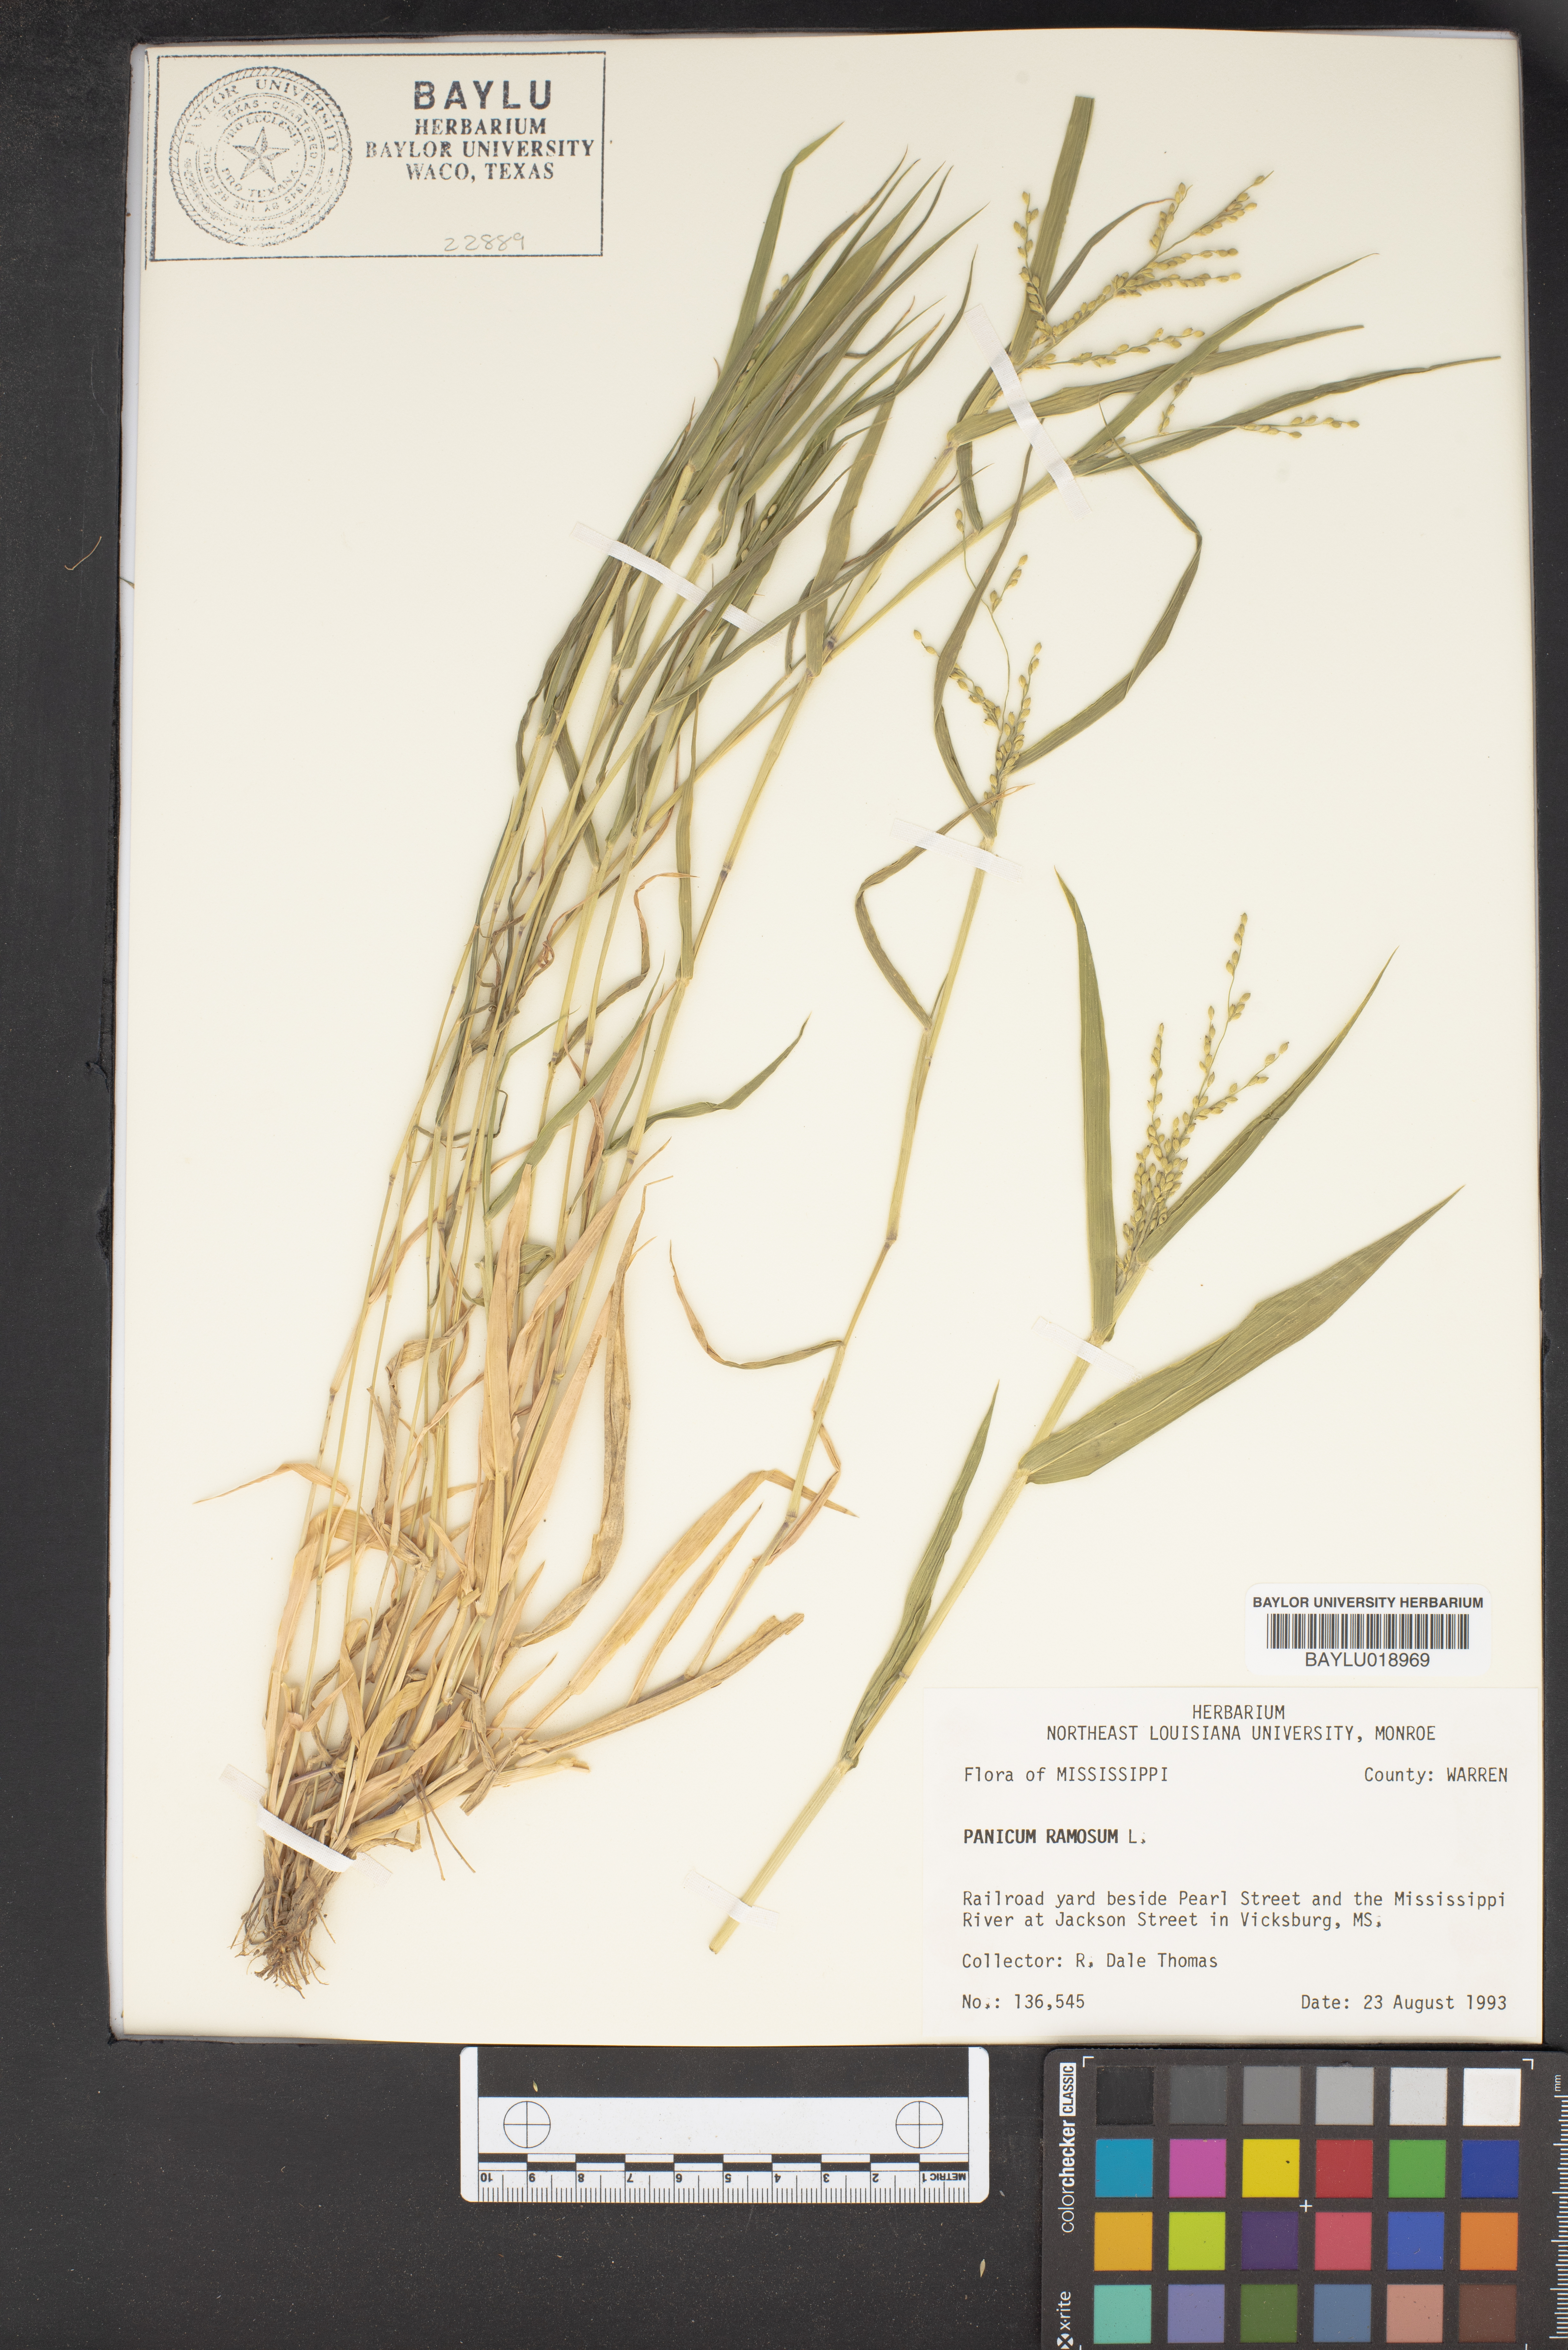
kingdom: Plantae
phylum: Tracheophyta
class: Liliopsida
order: Poales
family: Poaceae
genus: Urochloa
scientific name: Urochloa ramosa
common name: Browntop millet
